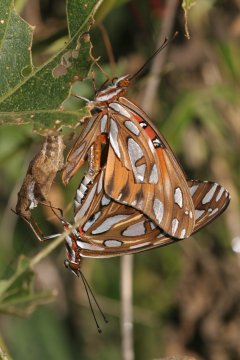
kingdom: Animalia
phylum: Arthropoda
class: Insecta
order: Lepidoptera
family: Nymphalidae
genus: Dione
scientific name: Dione vanillae
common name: Gulf Fritillary
